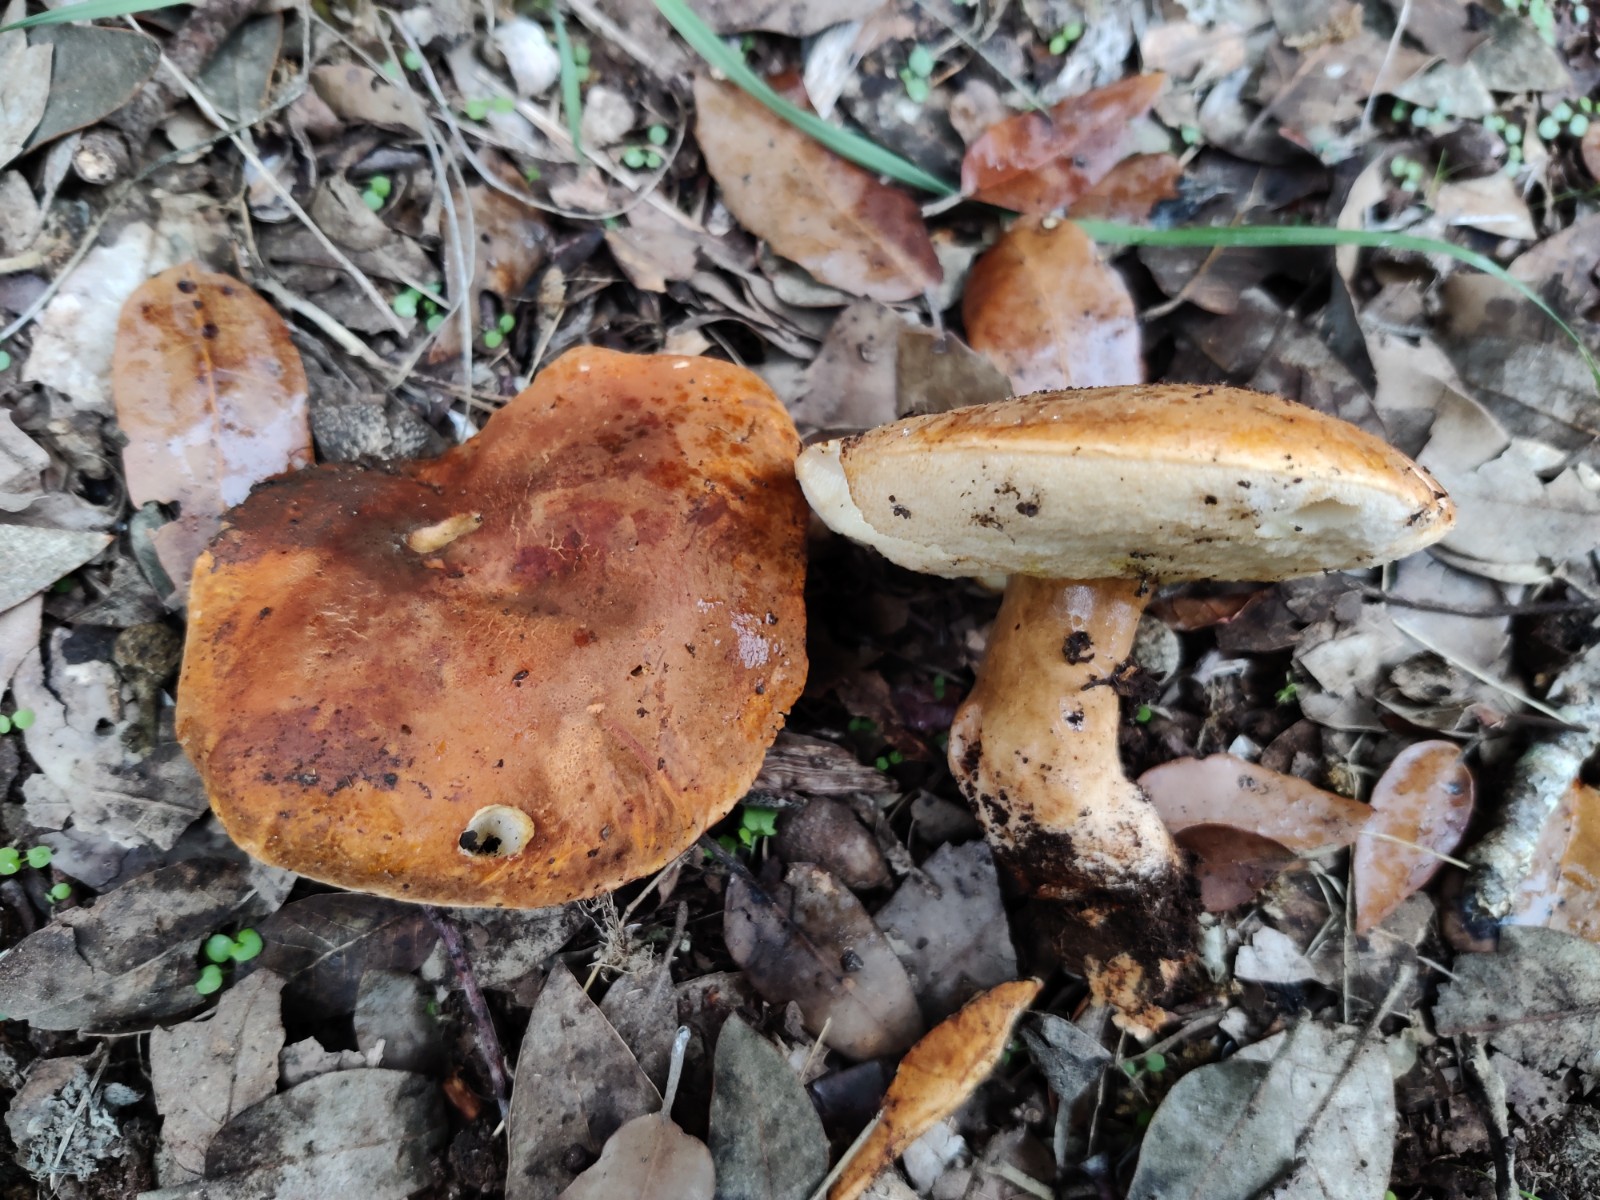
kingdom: Fungi
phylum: Basidiomycota
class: Agaricomycetes
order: Boletales
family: Gyroporaceae
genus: Gyroporus
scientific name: Gyroporus castaneus
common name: kastanie-kammerrørhat
